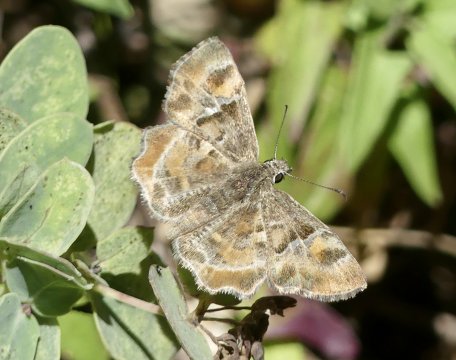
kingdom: Animalia
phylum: Arthropoda
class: Insecta
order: Lepidoptera
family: Hesperiidae
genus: Systasea
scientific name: Systasea zampa
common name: Arizona Powdered-Skipper
